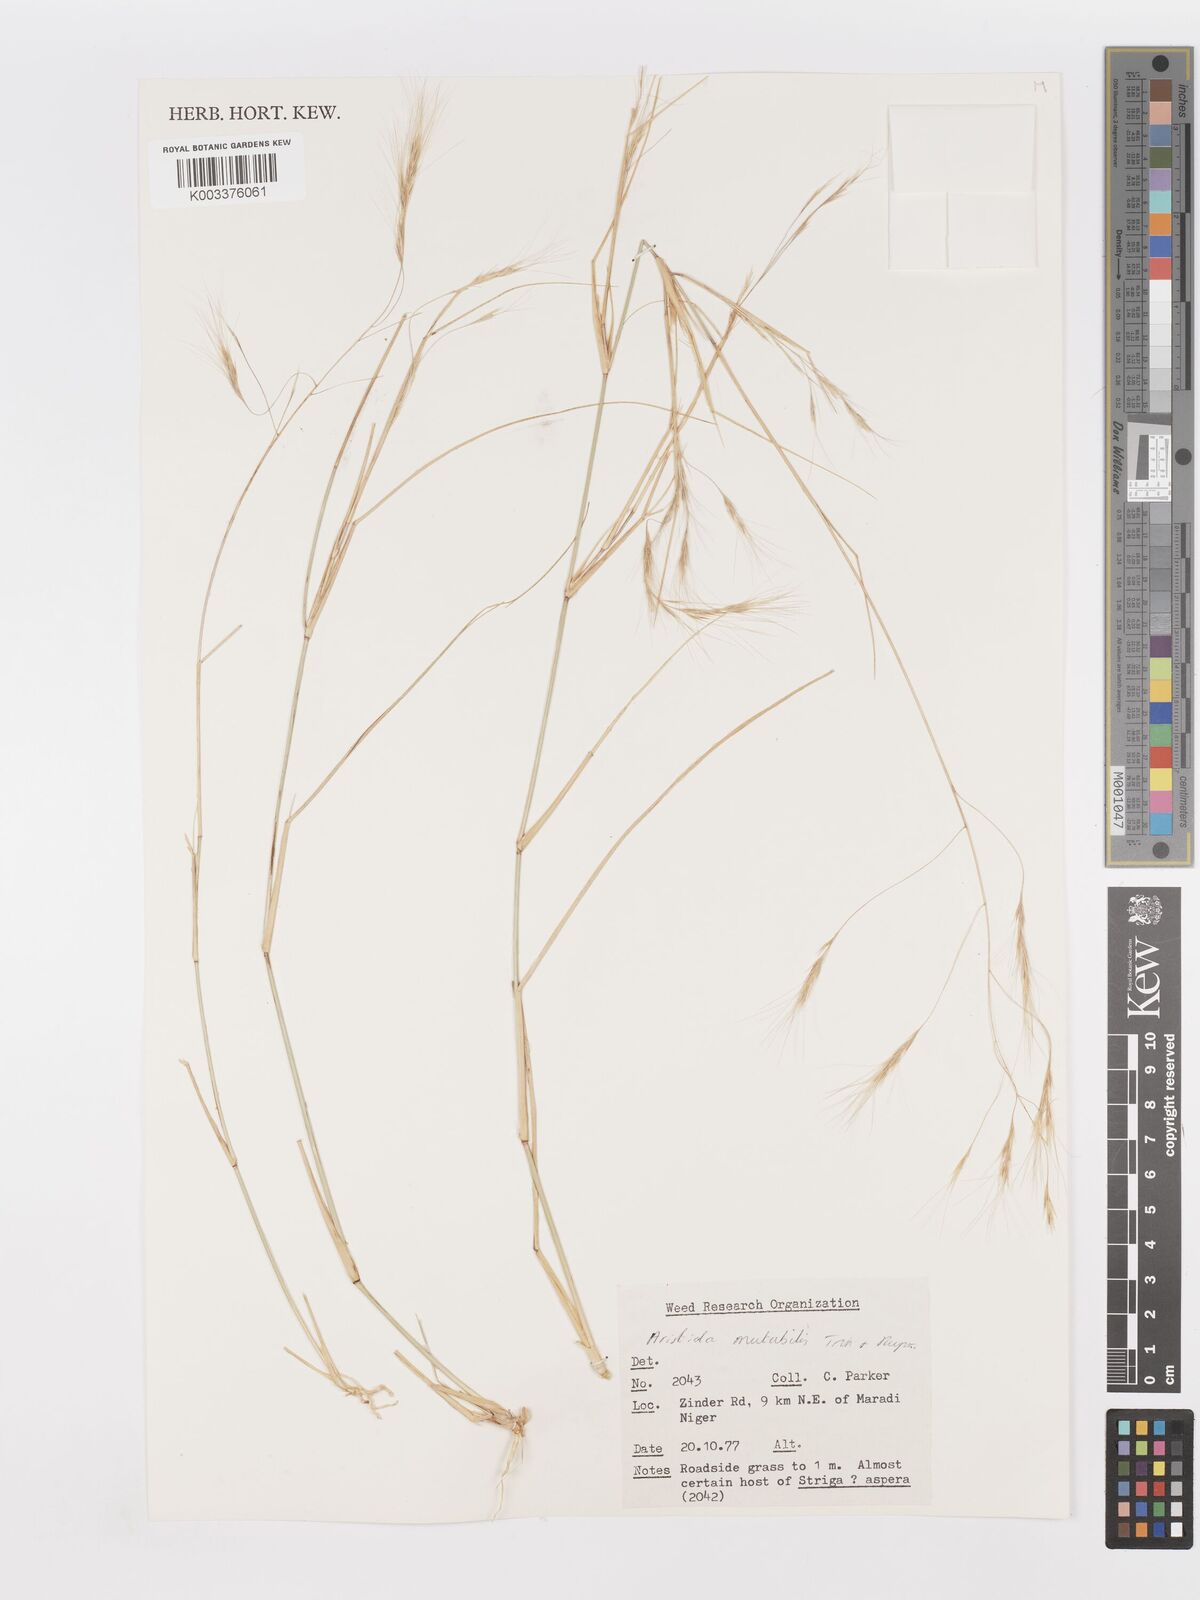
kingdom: Plantae
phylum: Tracheophyta
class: Liliopsida
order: Poales
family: Poaceae
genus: Aristida
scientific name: Aristida mutabilis
